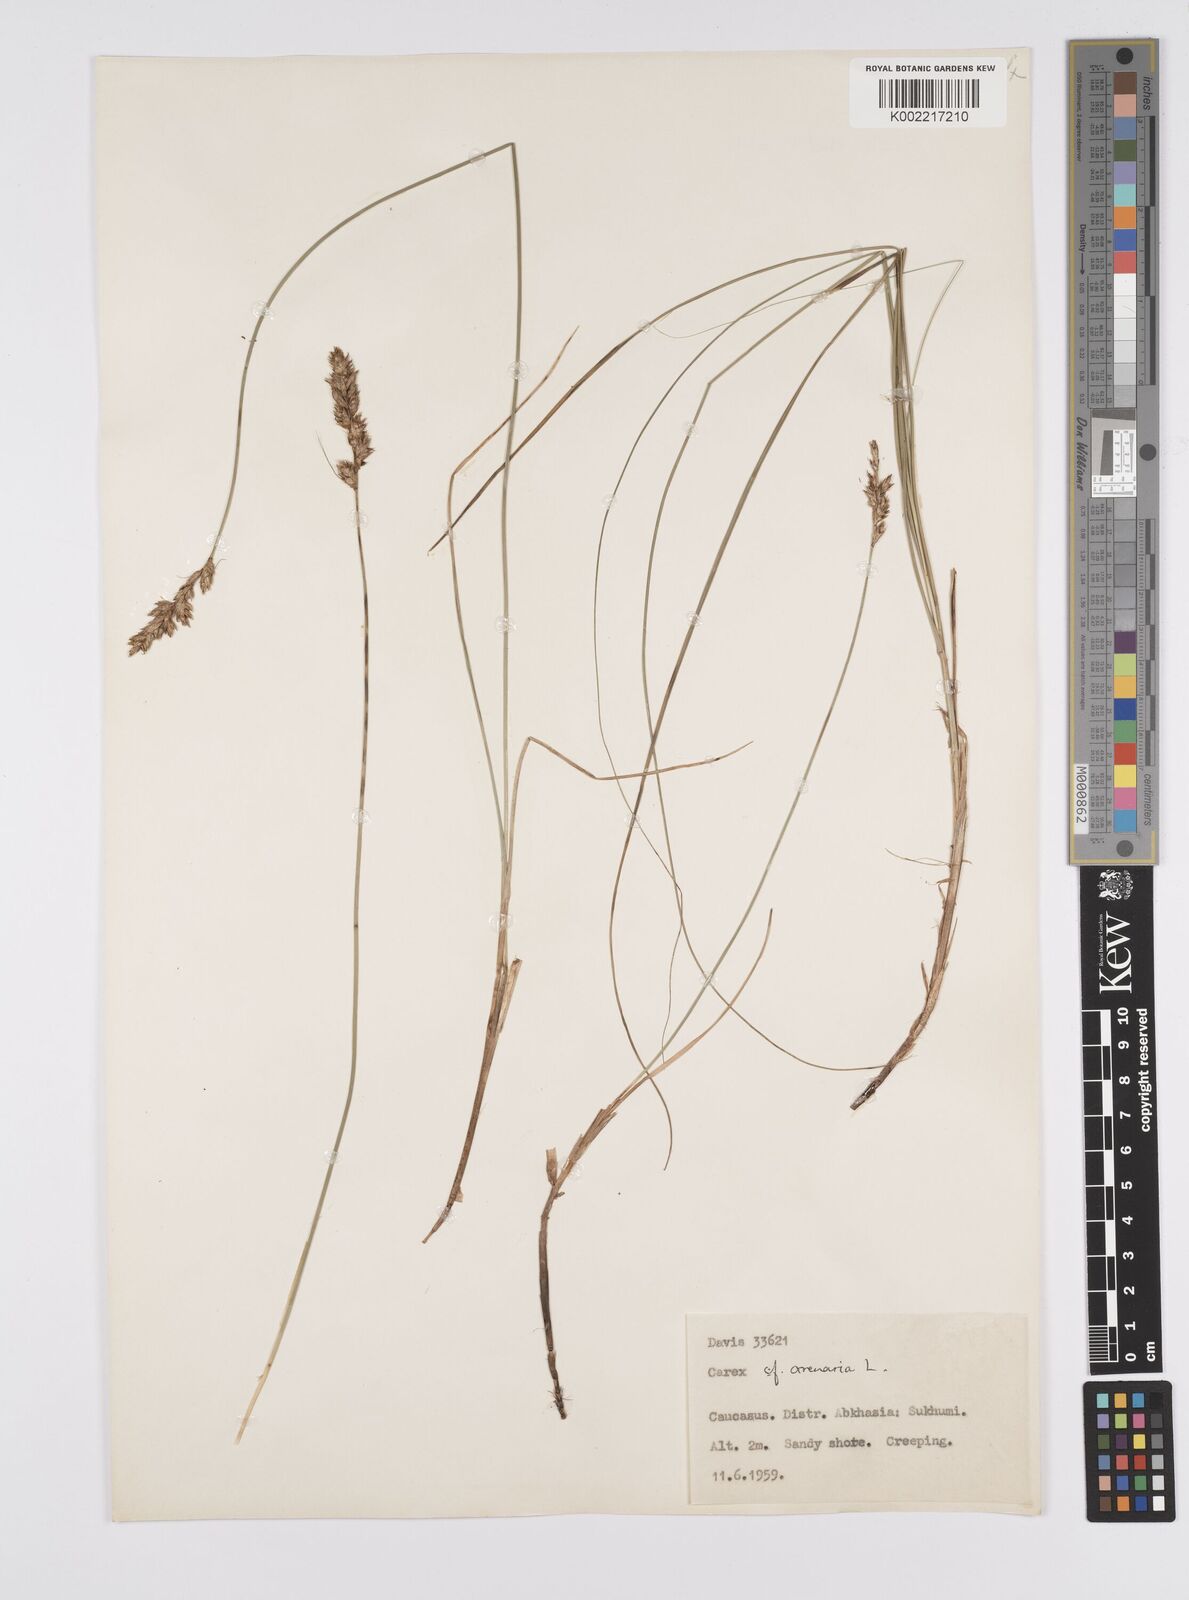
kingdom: Plantae
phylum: Tracheophyta
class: Liliopsida
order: Poales
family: Cyperaceae
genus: Carex
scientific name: Carex
